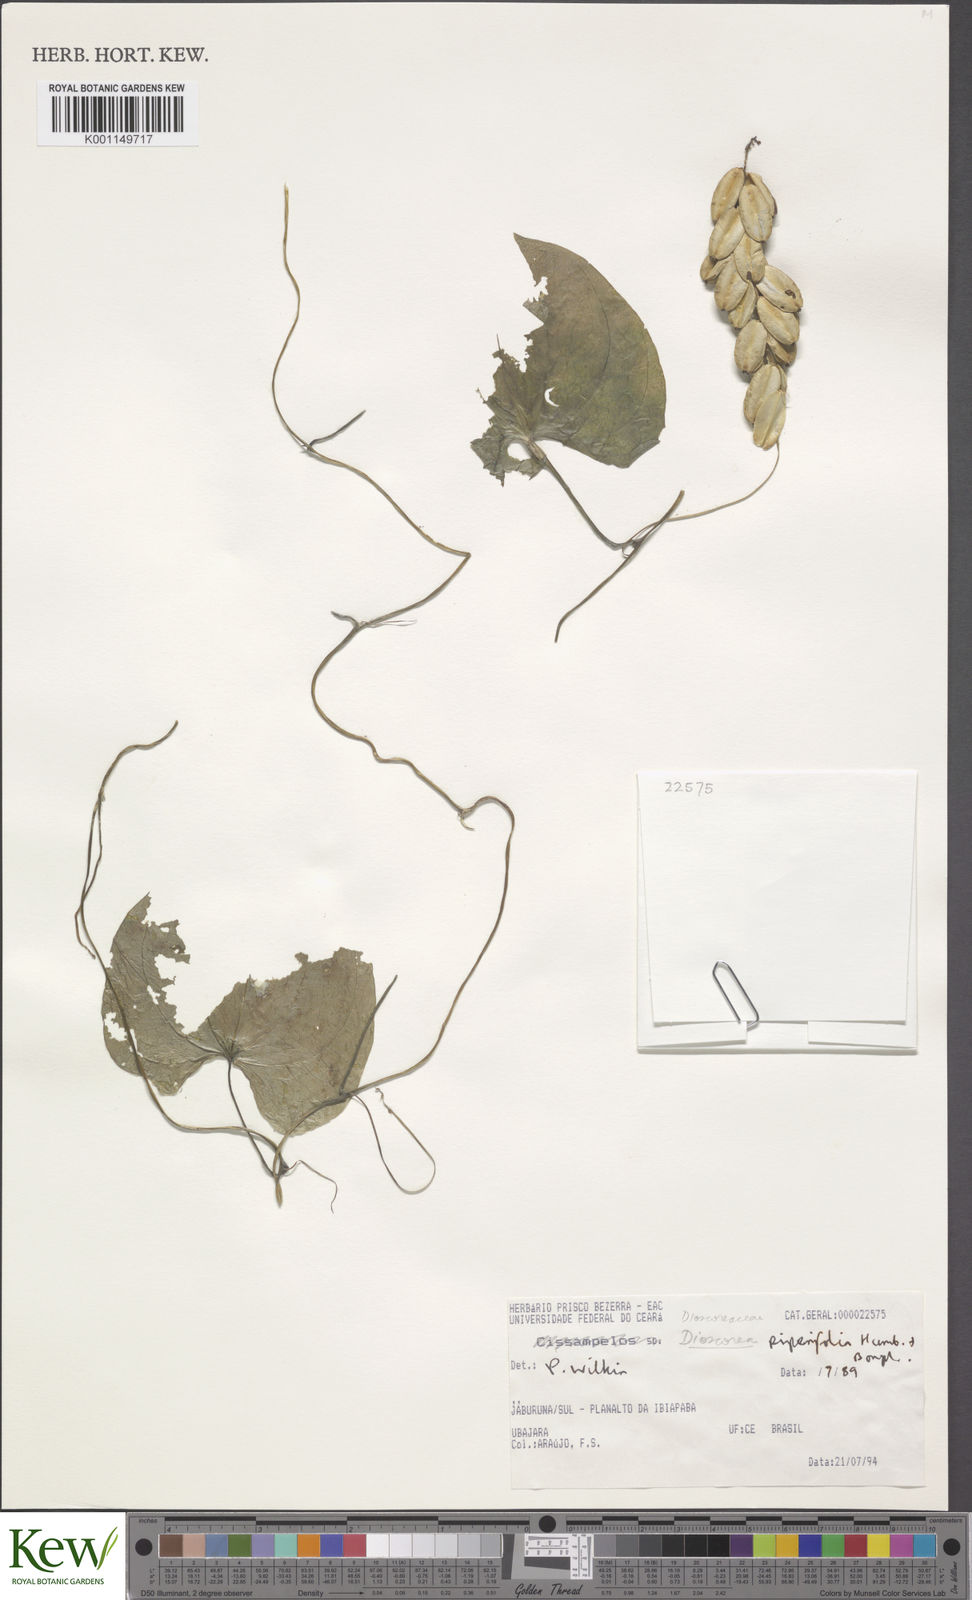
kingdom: Plantae
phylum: Tracheophyta
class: Liliopsida
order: Dioscoreales
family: Dioscoreaceae
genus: Dioscorea
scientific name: Dioscorea piperifolia
